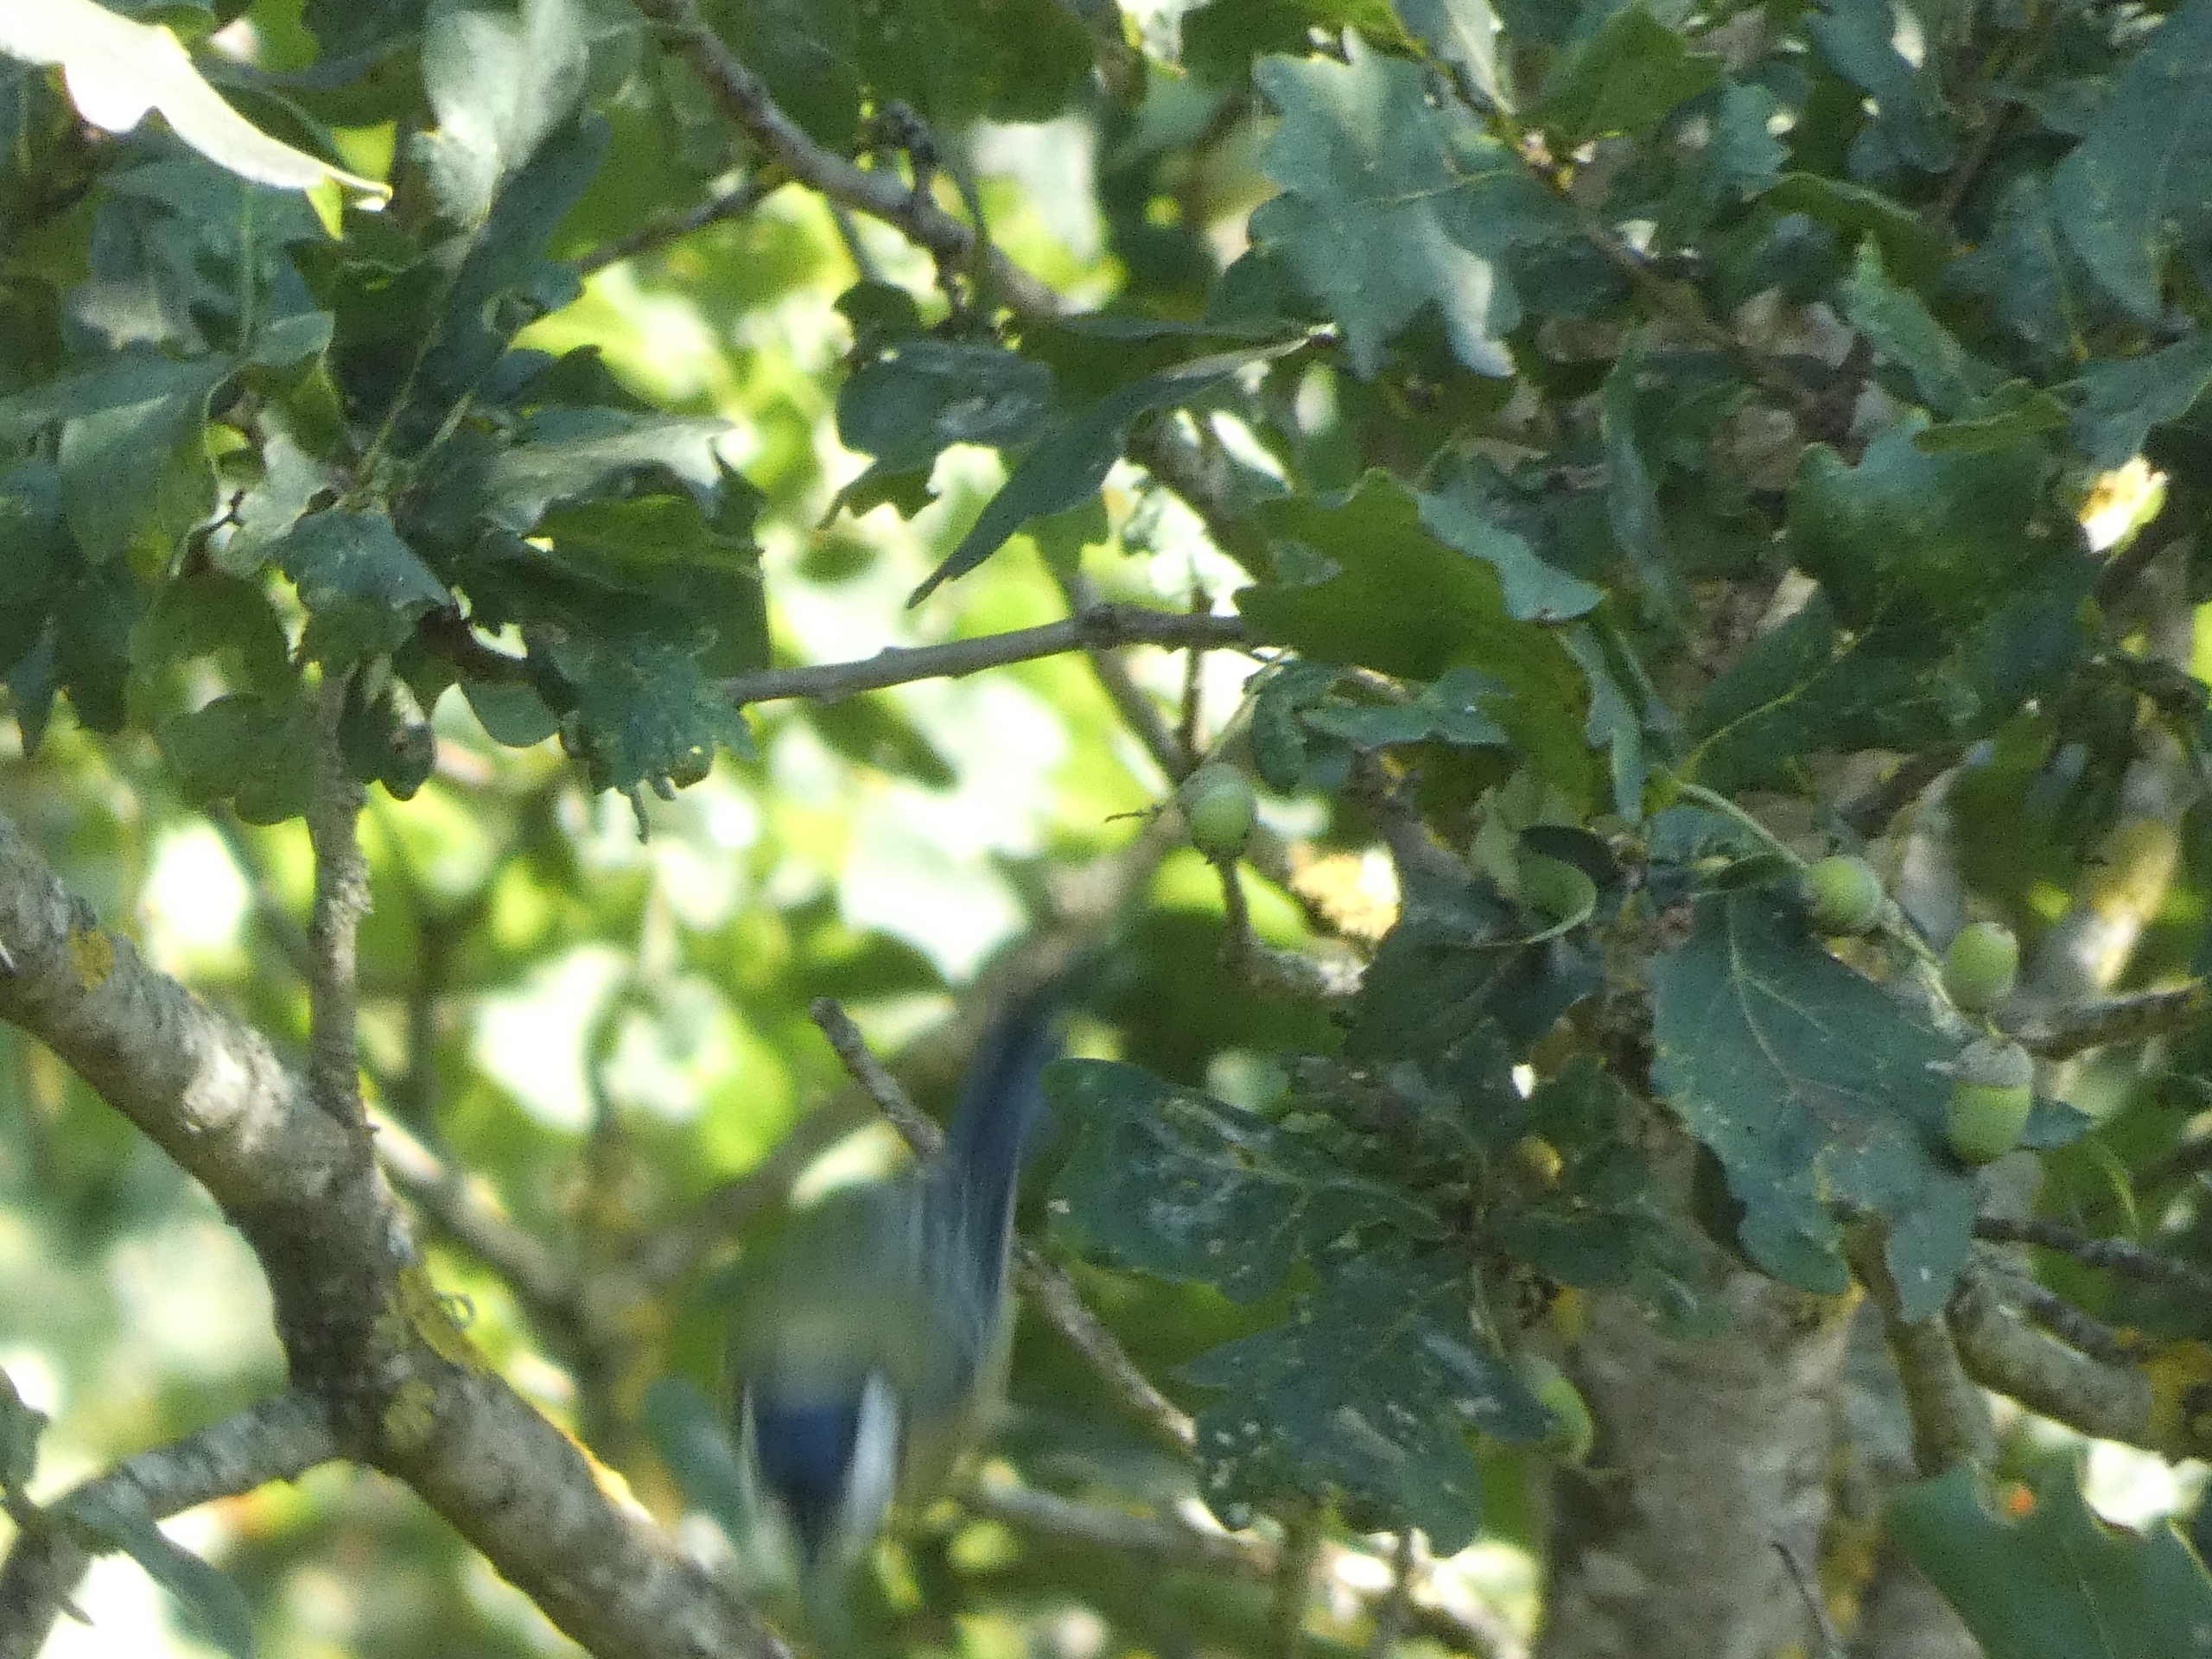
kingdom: Animalia
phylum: Chordata
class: Aves
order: Passeriformes
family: Paridae
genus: Parus
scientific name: Parus major
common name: Musvit
